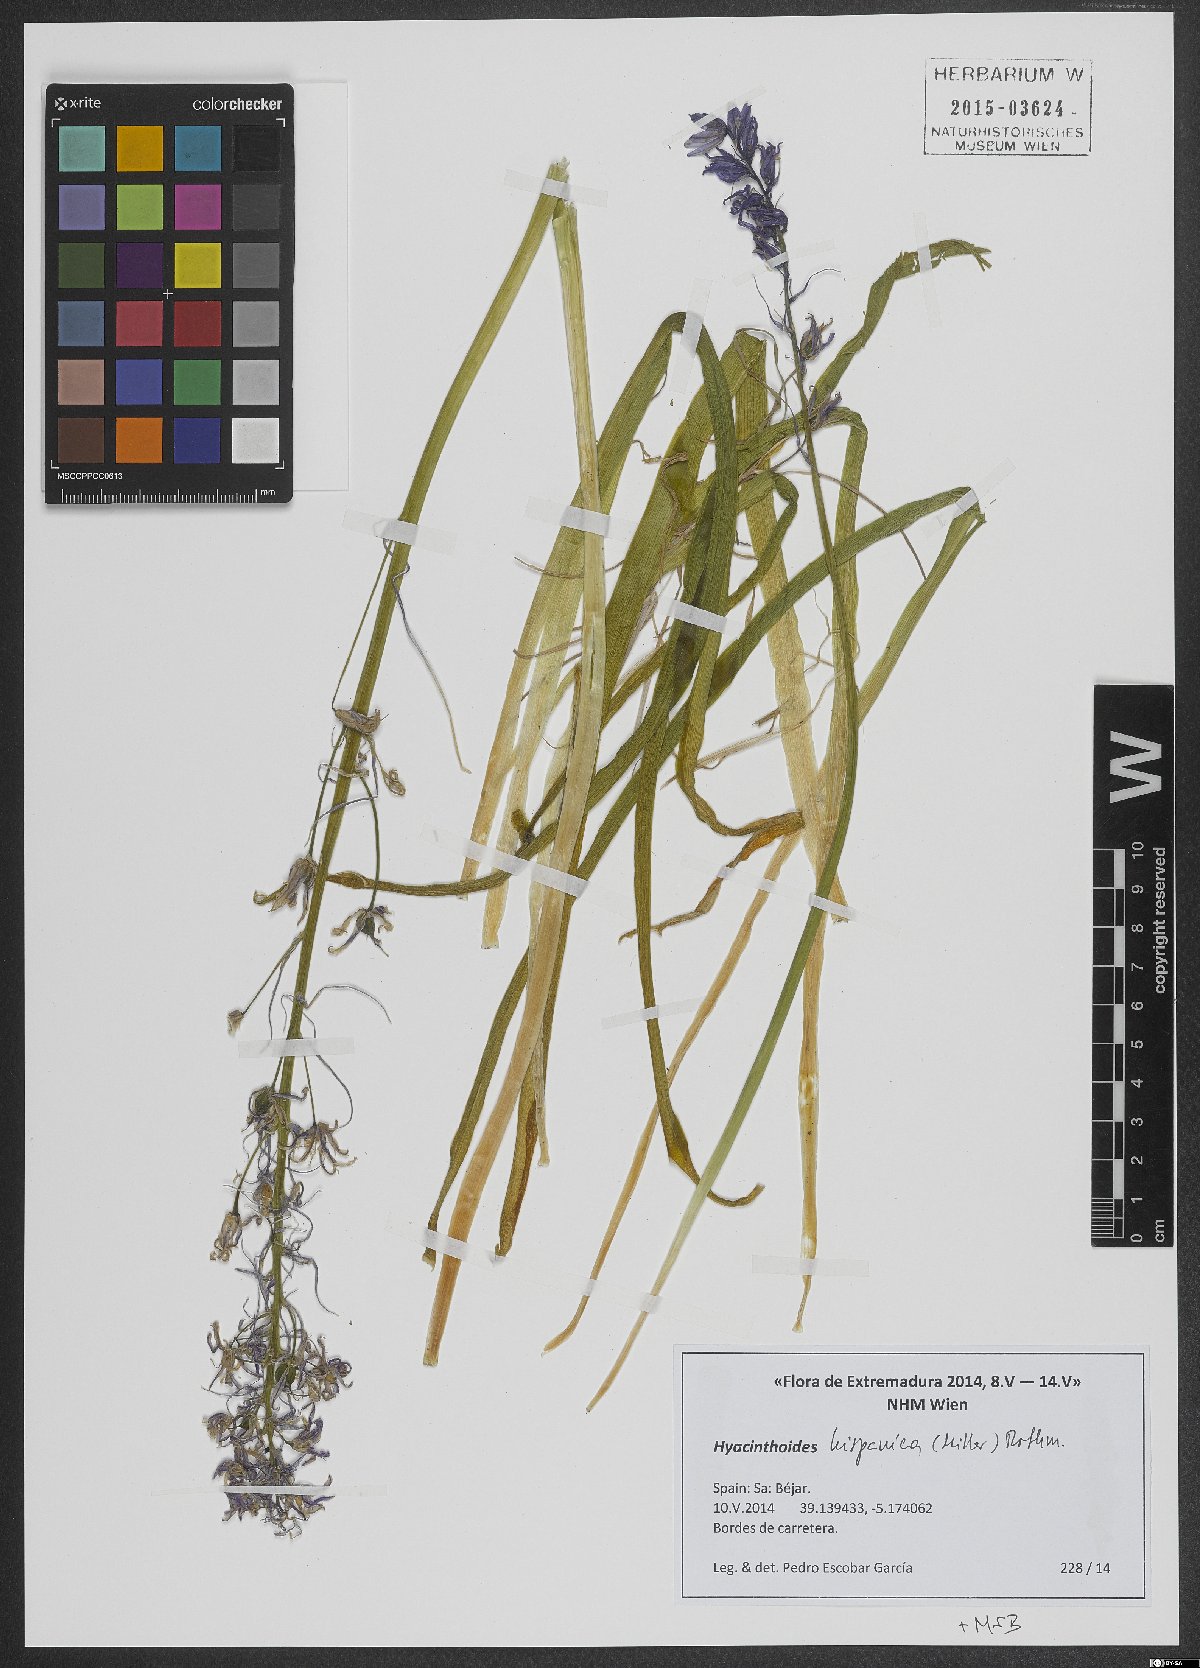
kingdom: Plantae
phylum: Tracheophyta
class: Liliopsida
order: Asparagales
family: Asparagaceae
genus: Hyacinthoides
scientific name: Hyacinthoides hispanica
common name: Spanish bluebell
